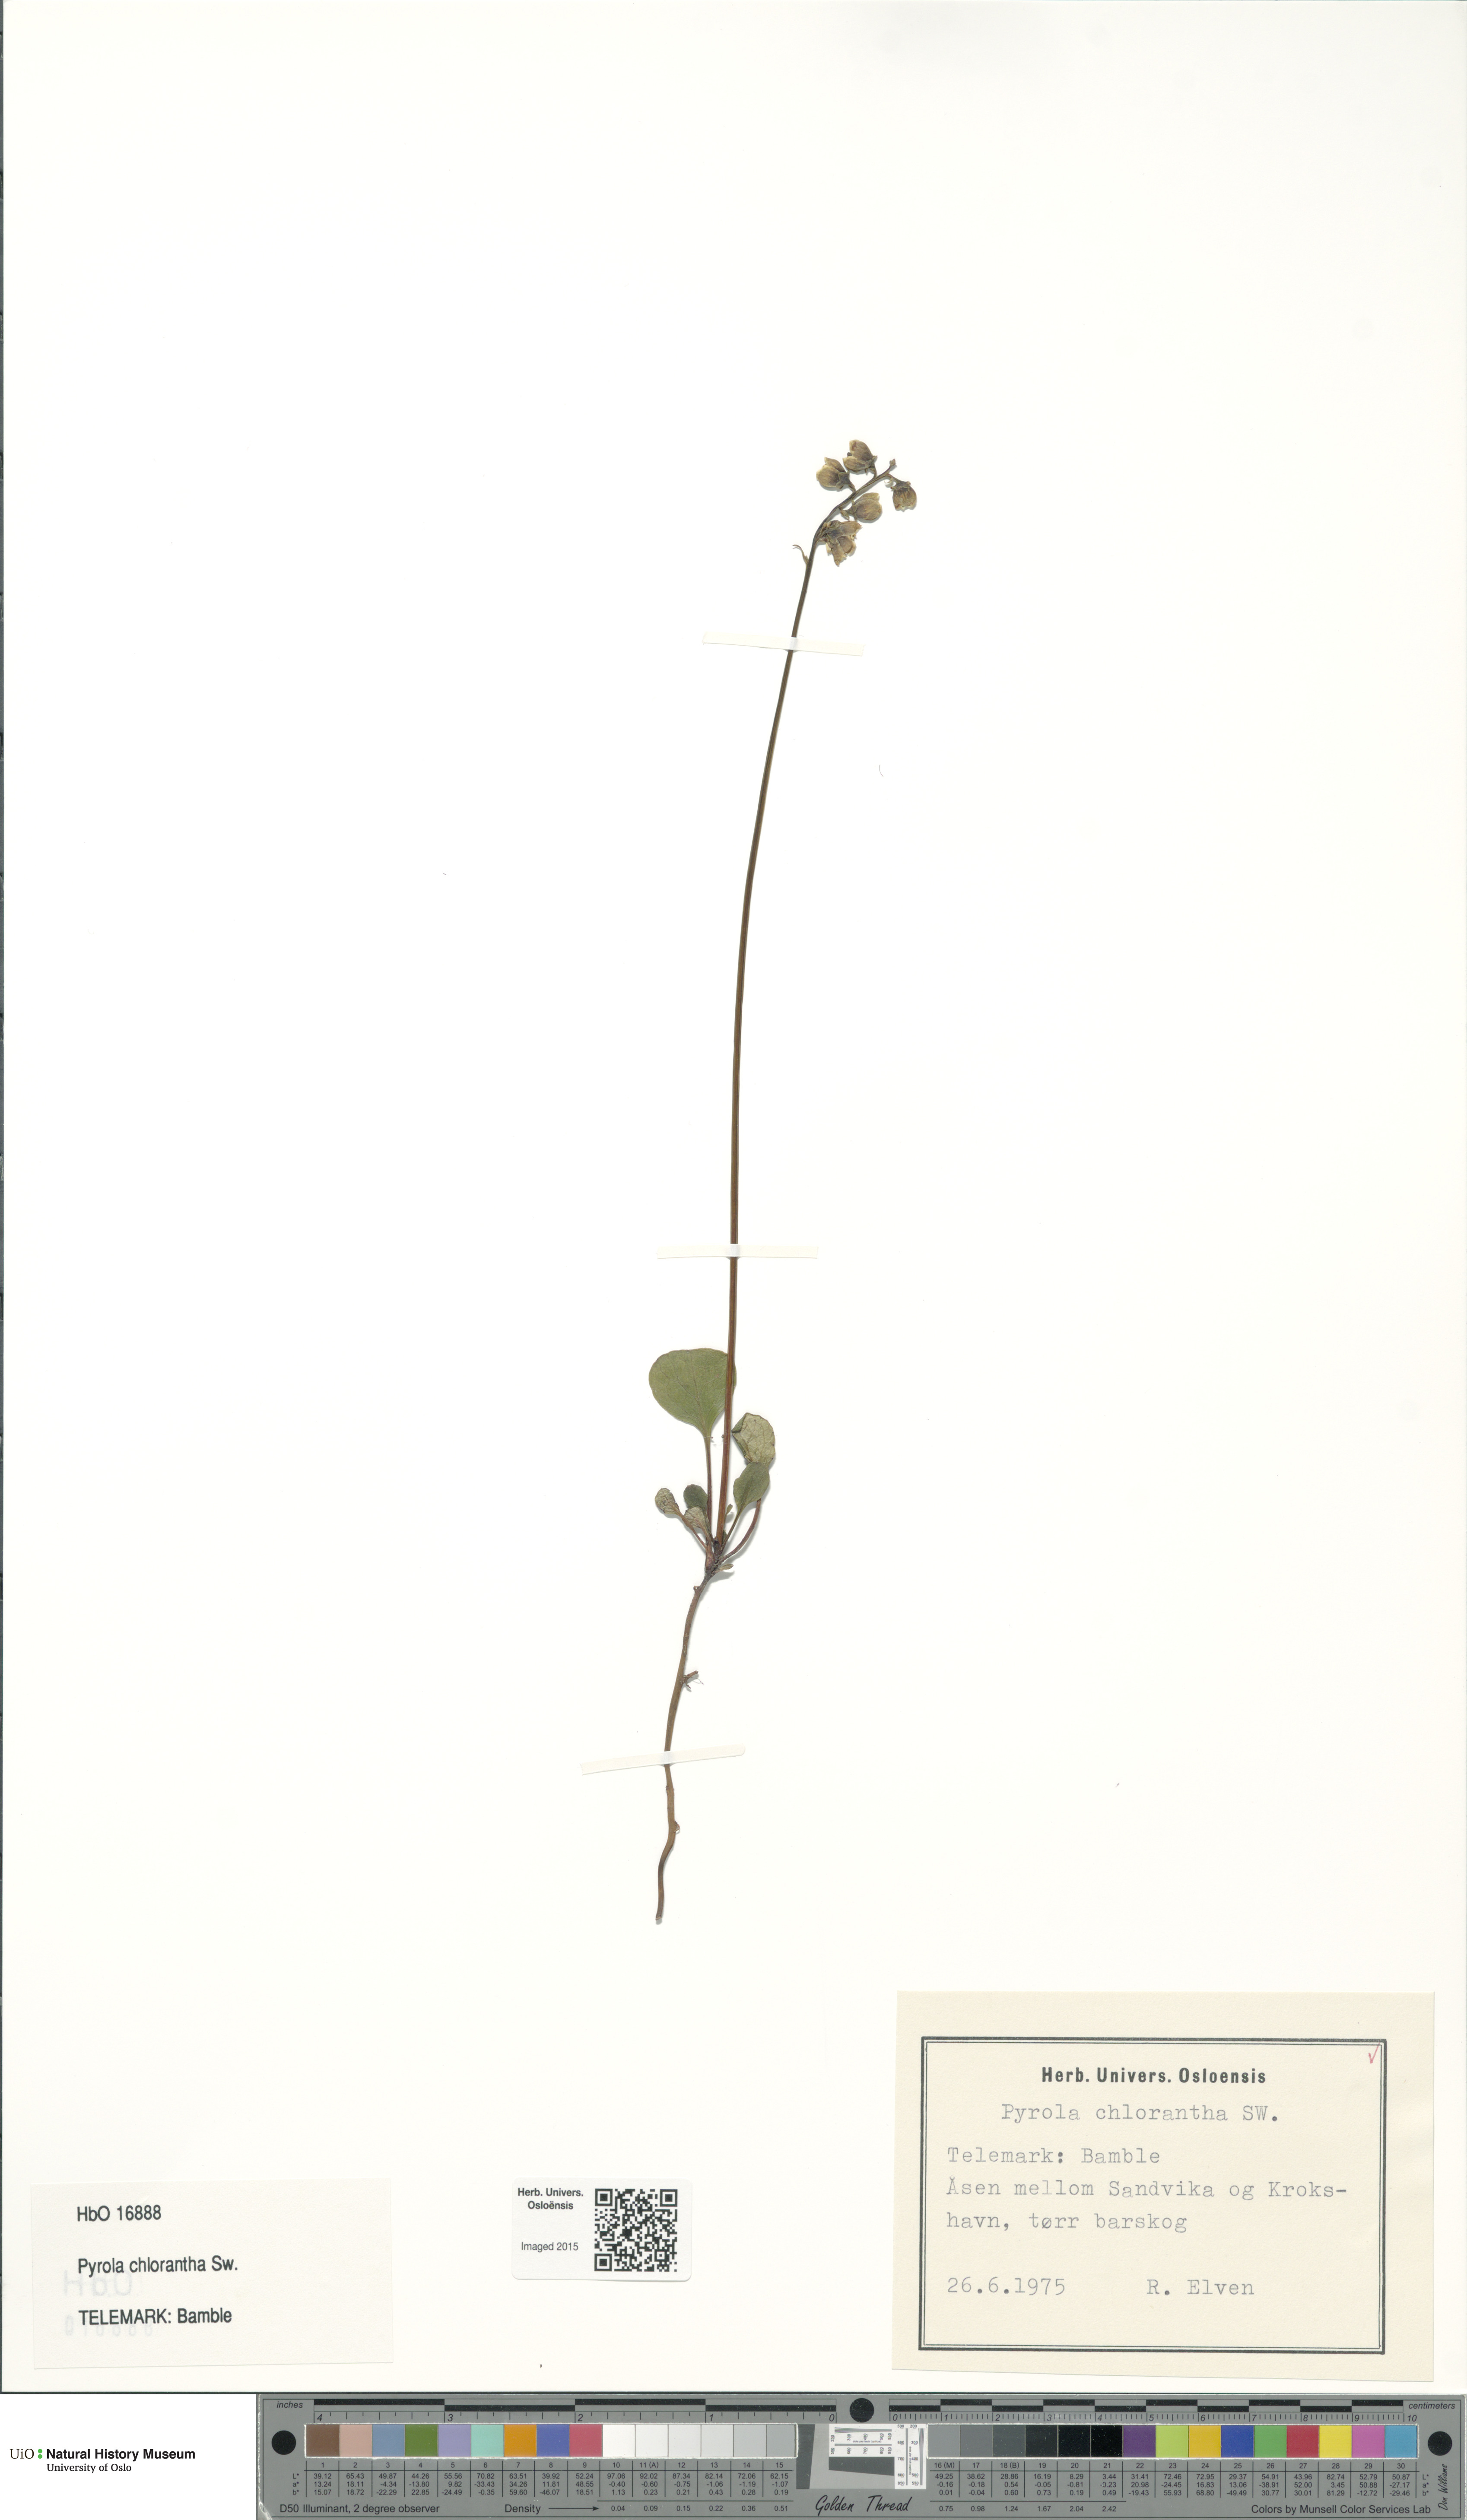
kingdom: Plantae
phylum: Tracheophyta
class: Magnoliopsida
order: Ericales
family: Ericaceae
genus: Pyrola
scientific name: Pyrola chlorantha
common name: Green wintergreen
